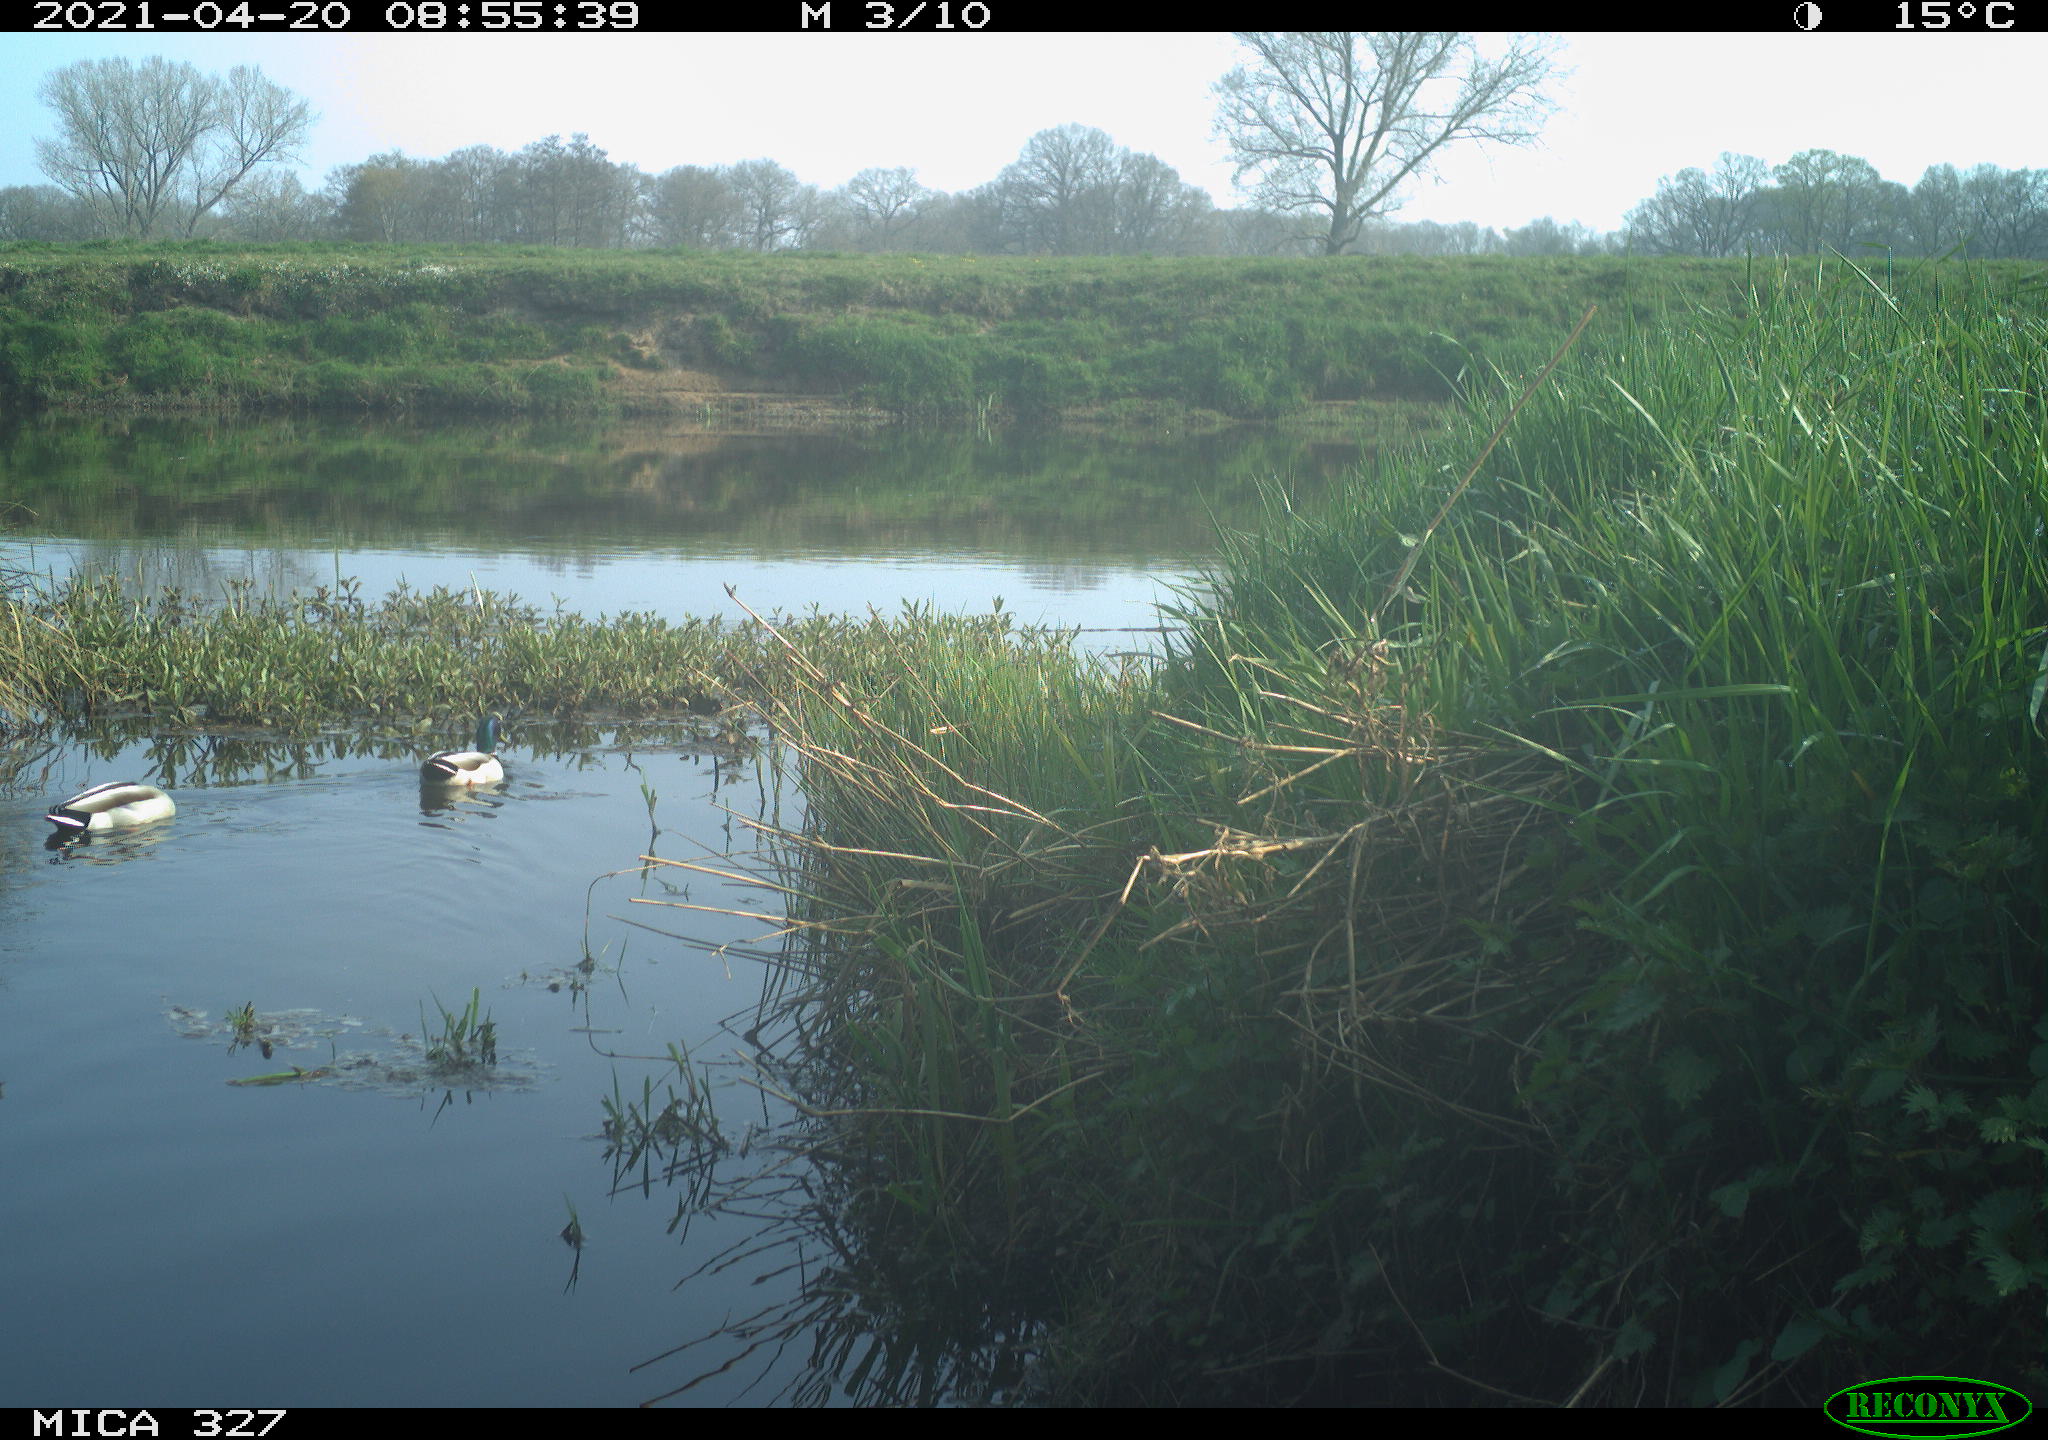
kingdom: Animalia
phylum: Chordata
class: Aves
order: Anseriformes
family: Anatidae
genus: Anas
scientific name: Anas platyrhynchos
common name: Mallard
